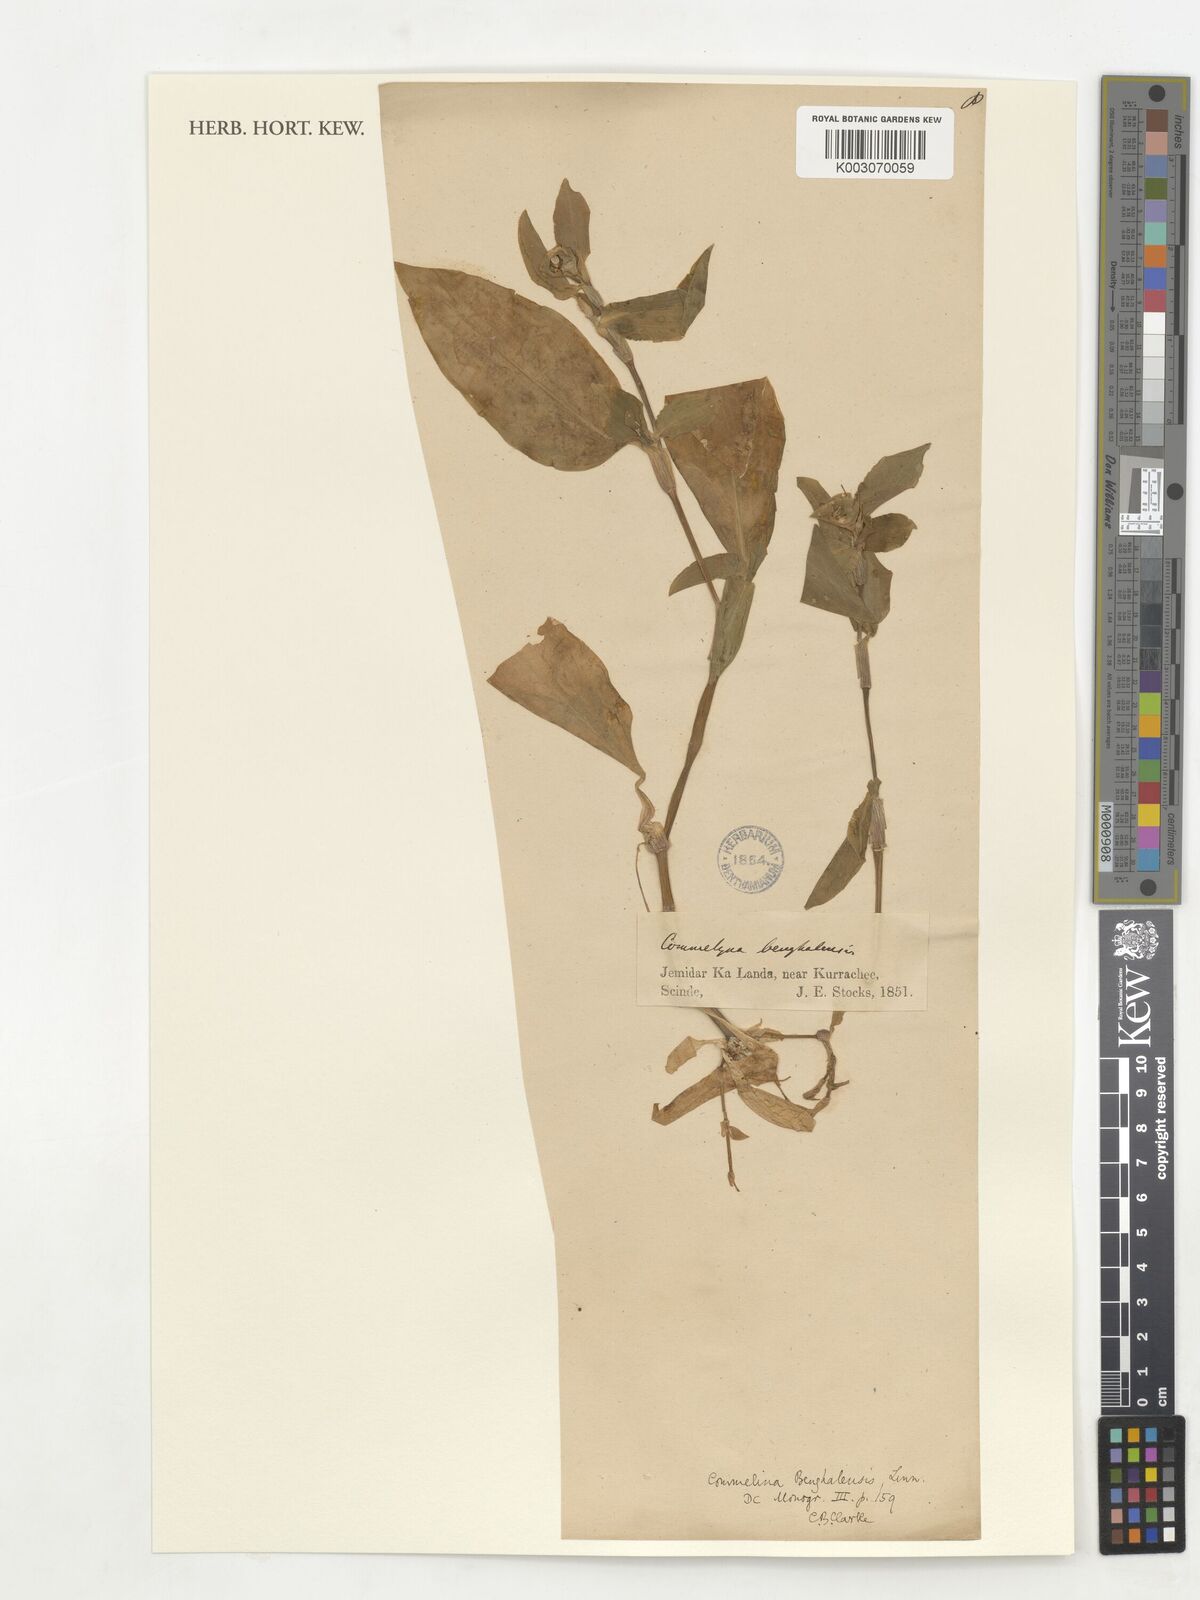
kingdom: Plantae
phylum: Tracheophyta
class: Liliopsida
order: Commelinales
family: Commelinaceae
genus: Commelina
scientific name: Commelina africana
